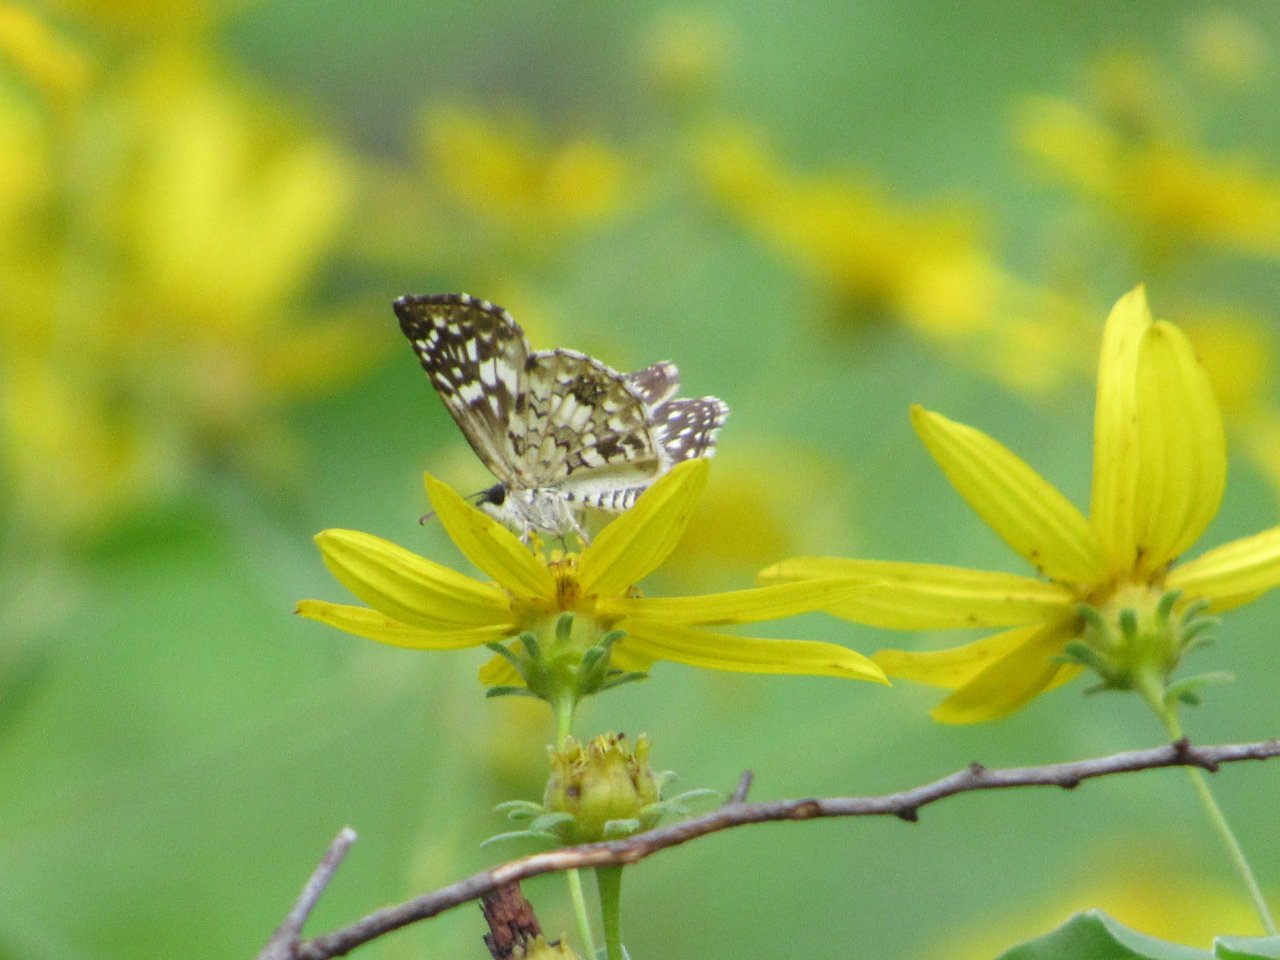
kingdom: Animalia
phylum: Arthropoda
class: Insecta
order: Lepidoptera
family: Hesperiidae
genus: Pyrgus
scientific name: Pyrgus oileus
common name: Tropical Checkered-Skipper
